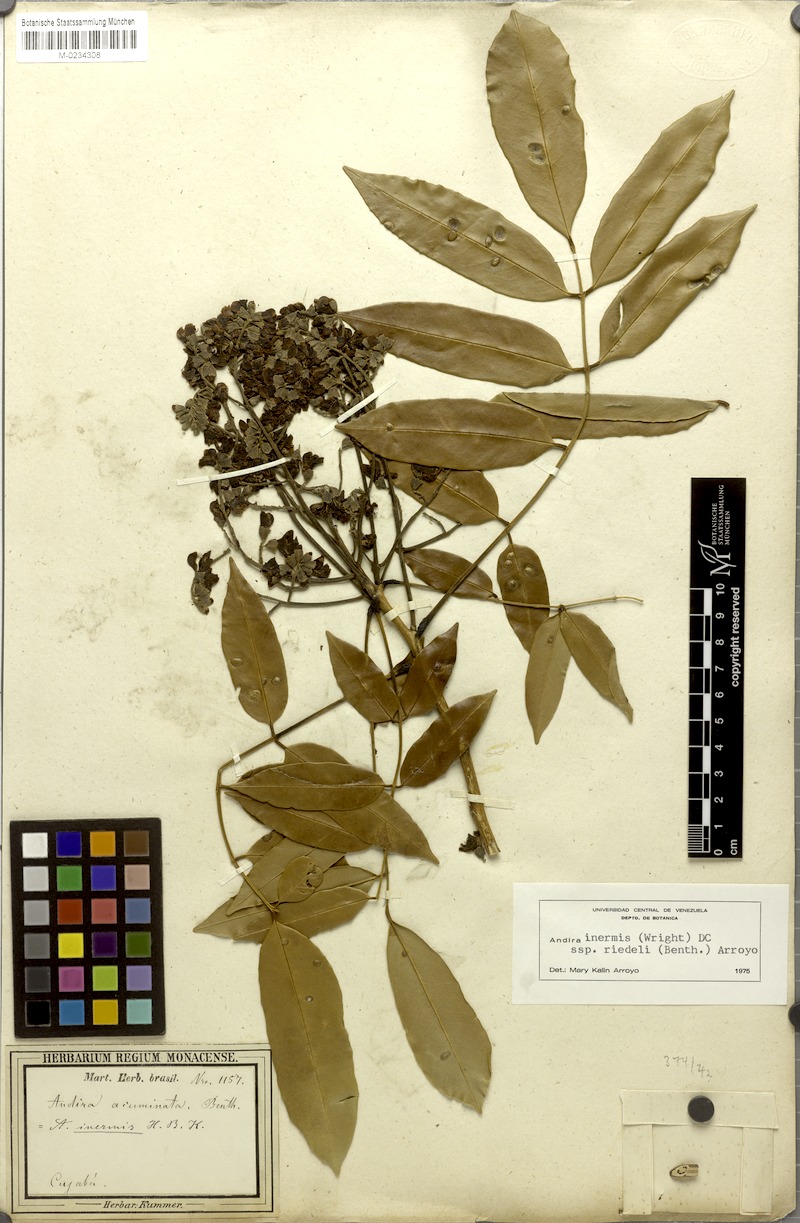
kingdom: Plantae
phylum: Tracheophyta
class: Magnoliopsida
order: Fabales
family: Fabaceae
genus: Andira
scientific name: Andira inermis
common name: Angelin
